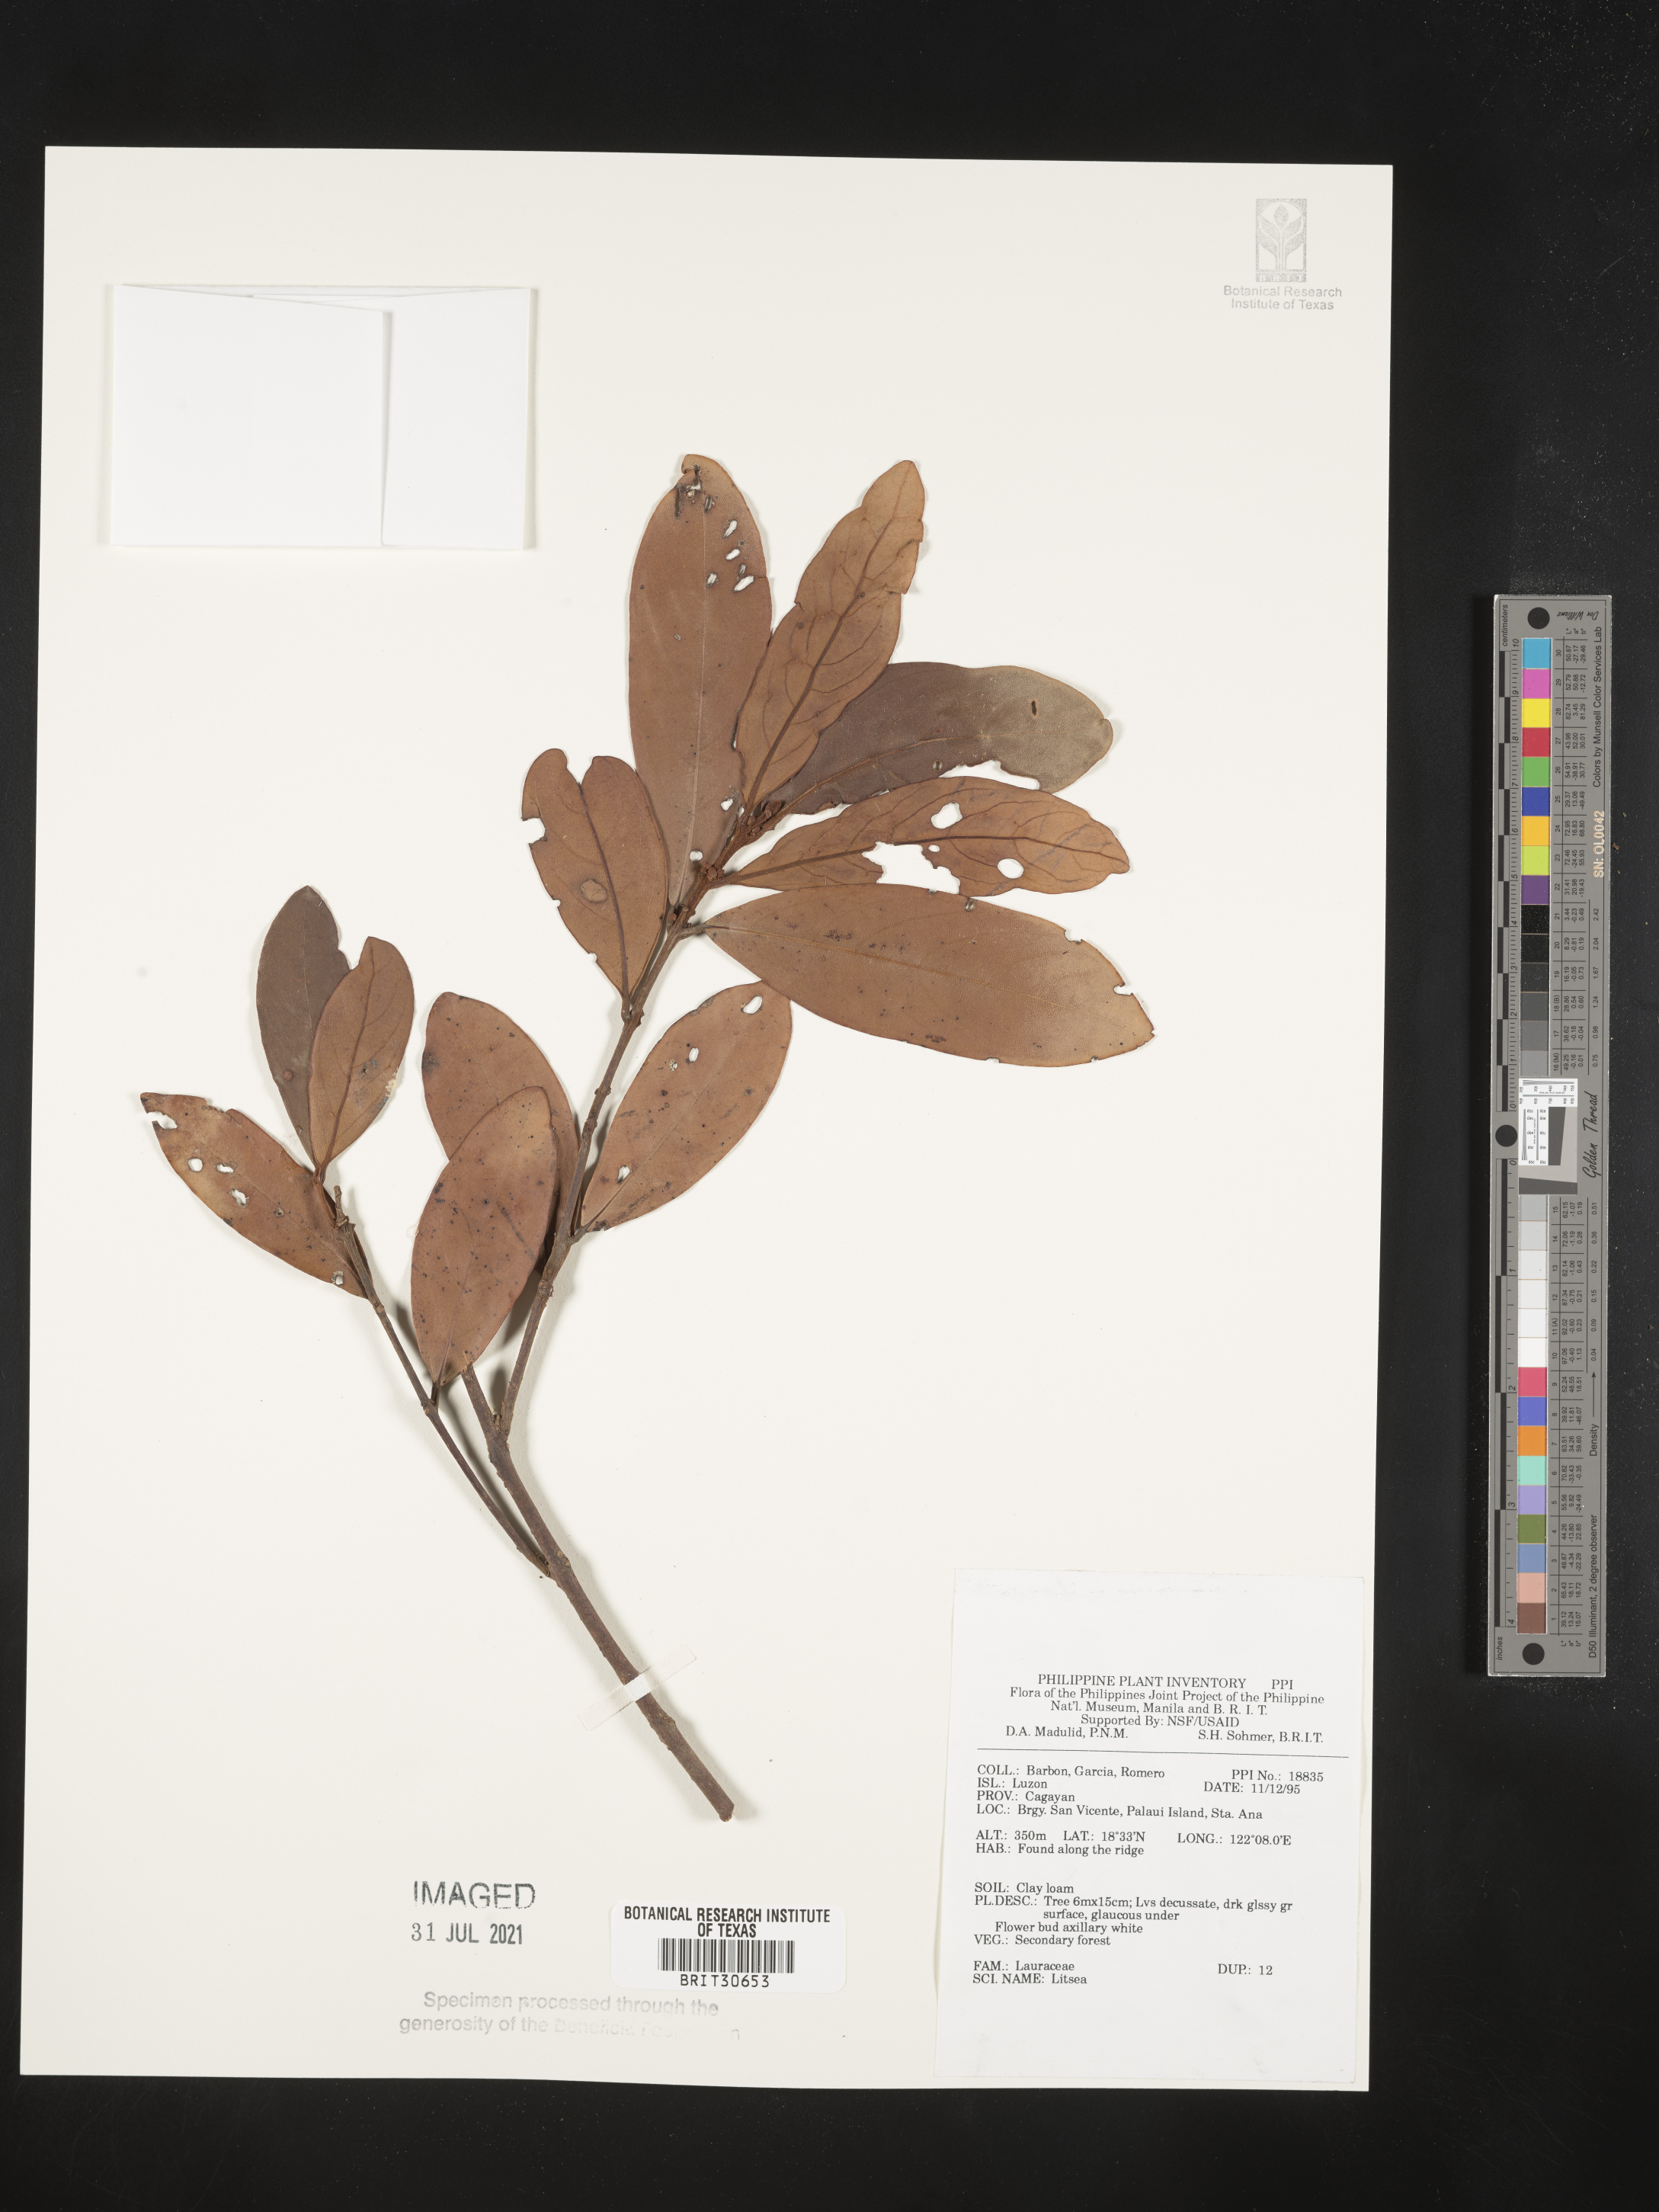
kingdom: Plantae
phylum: Tracheophyta
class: Magnoliopsida
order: Laurales
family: Lauraceae
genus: Litsea
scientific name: Litsea
